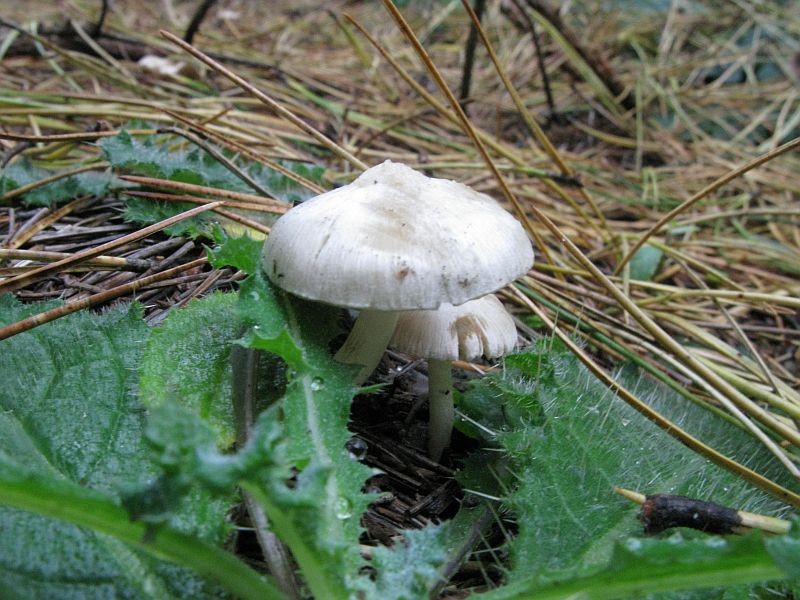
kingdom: Fungi
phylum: Basidiomycota
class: Agaricomycetes
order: Agaricales
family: Inocybaceae
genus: Inocybe
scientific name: Inocybe
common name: almindelig trævlhat
